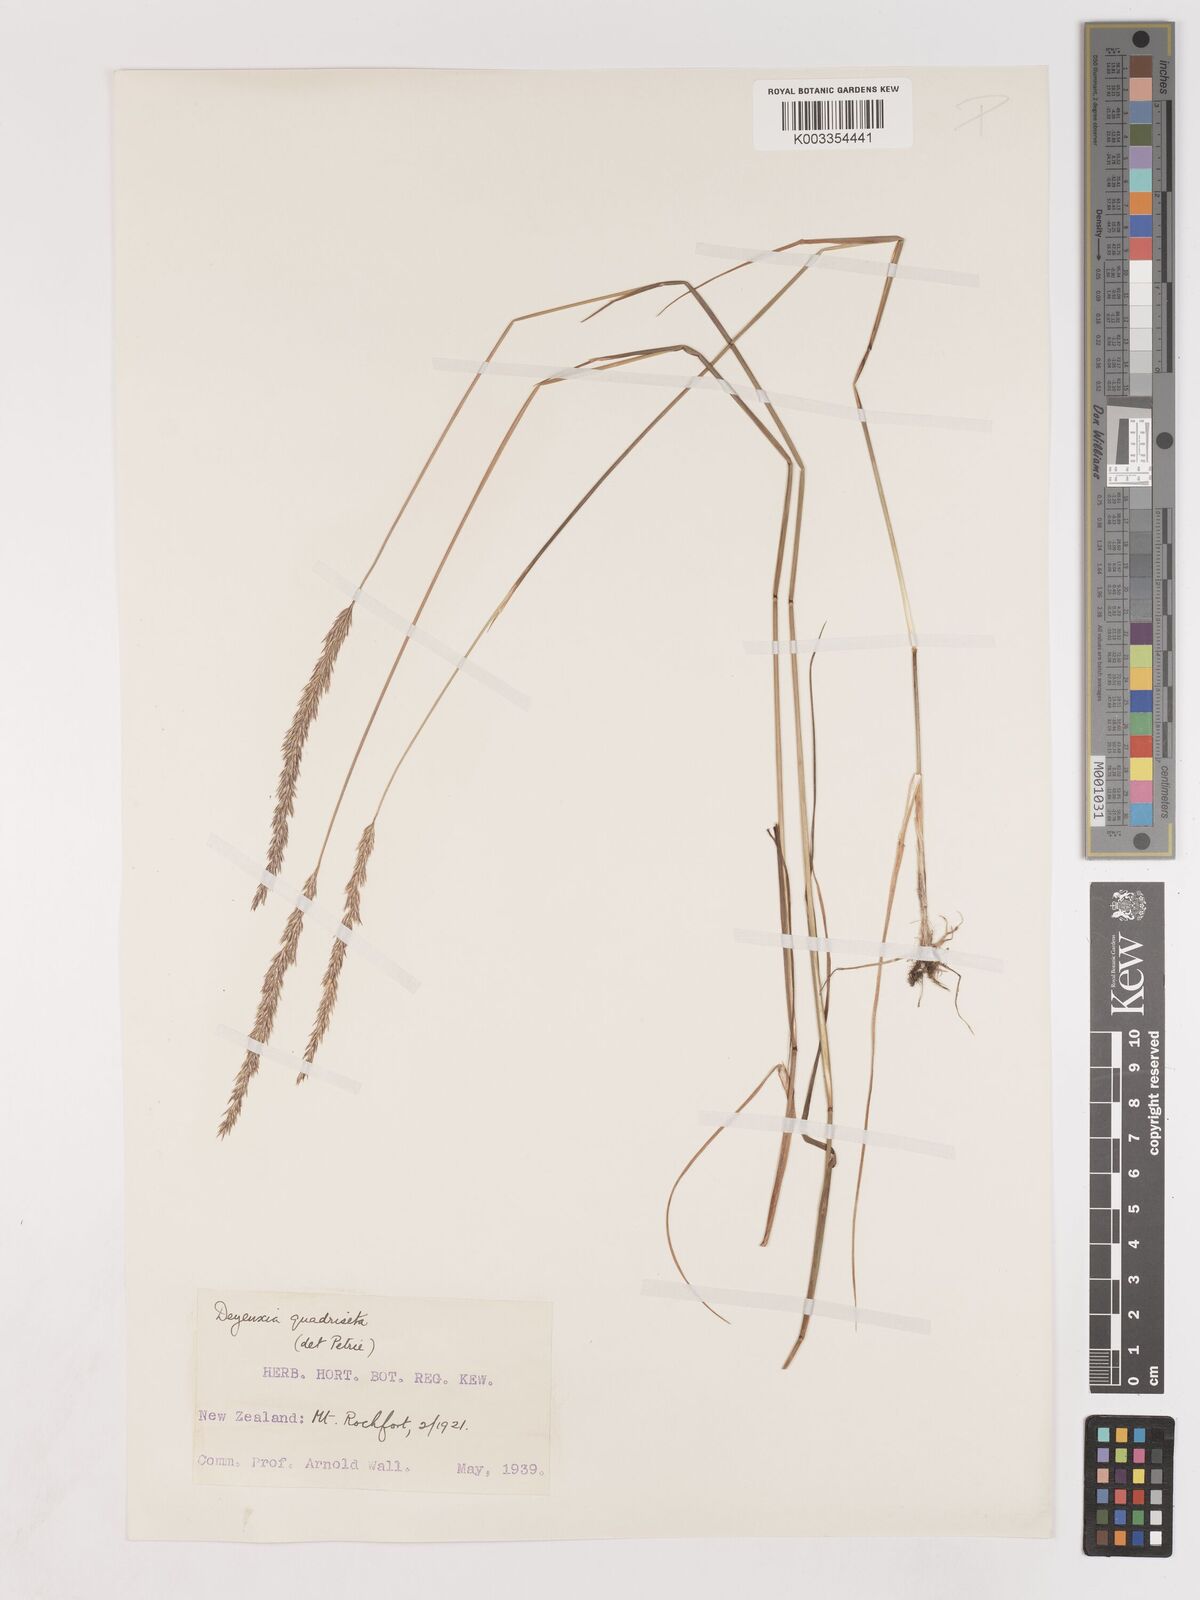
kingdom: Plantae
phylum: Tracheophyta
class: Liliopsida
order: Poales
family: Poaceae
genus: Calamagrostis
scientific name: Calamagrostis quadriseta
